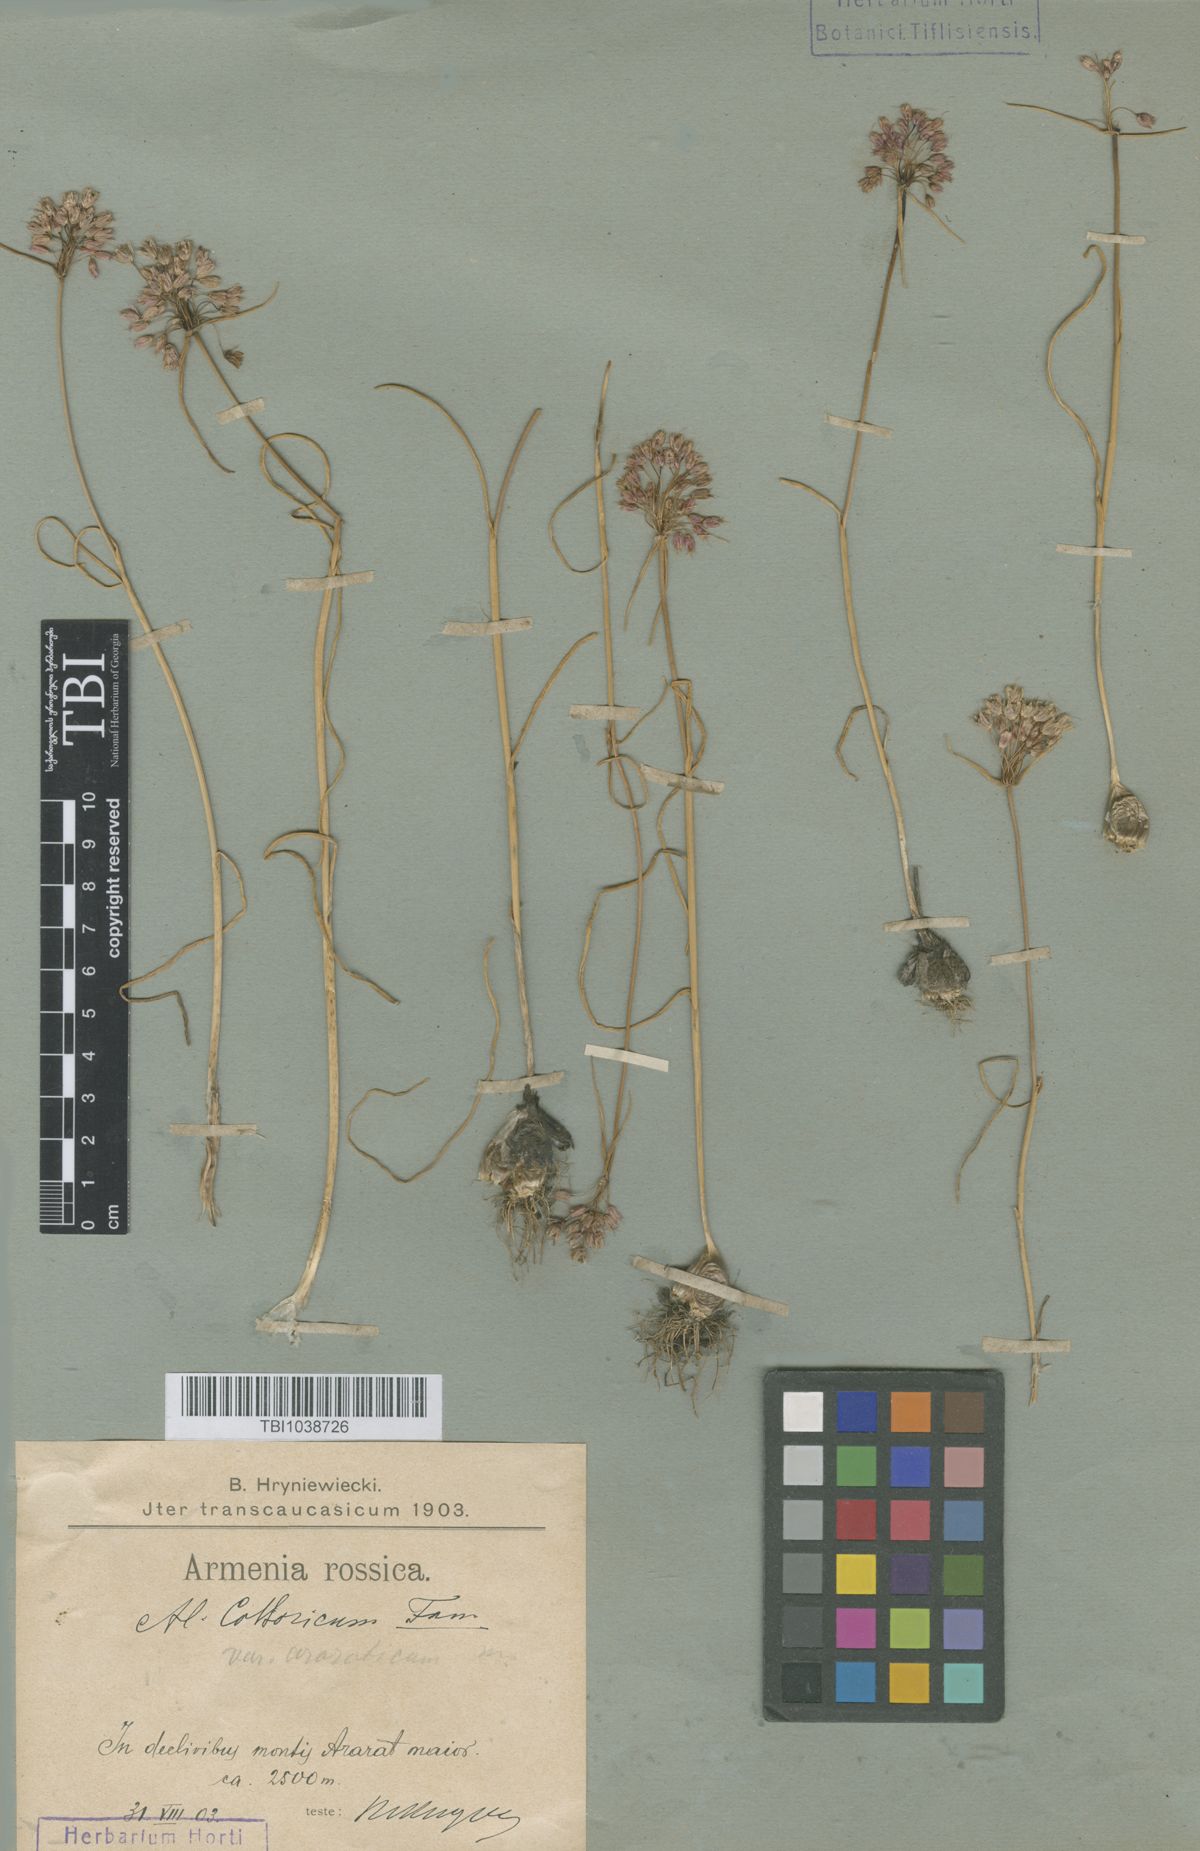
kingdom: Plantae
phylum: Tracheophyta
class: Liliopsida
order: Asparagales
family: Amaryllidaceae
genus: Allium
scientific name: Allium kossoricum
